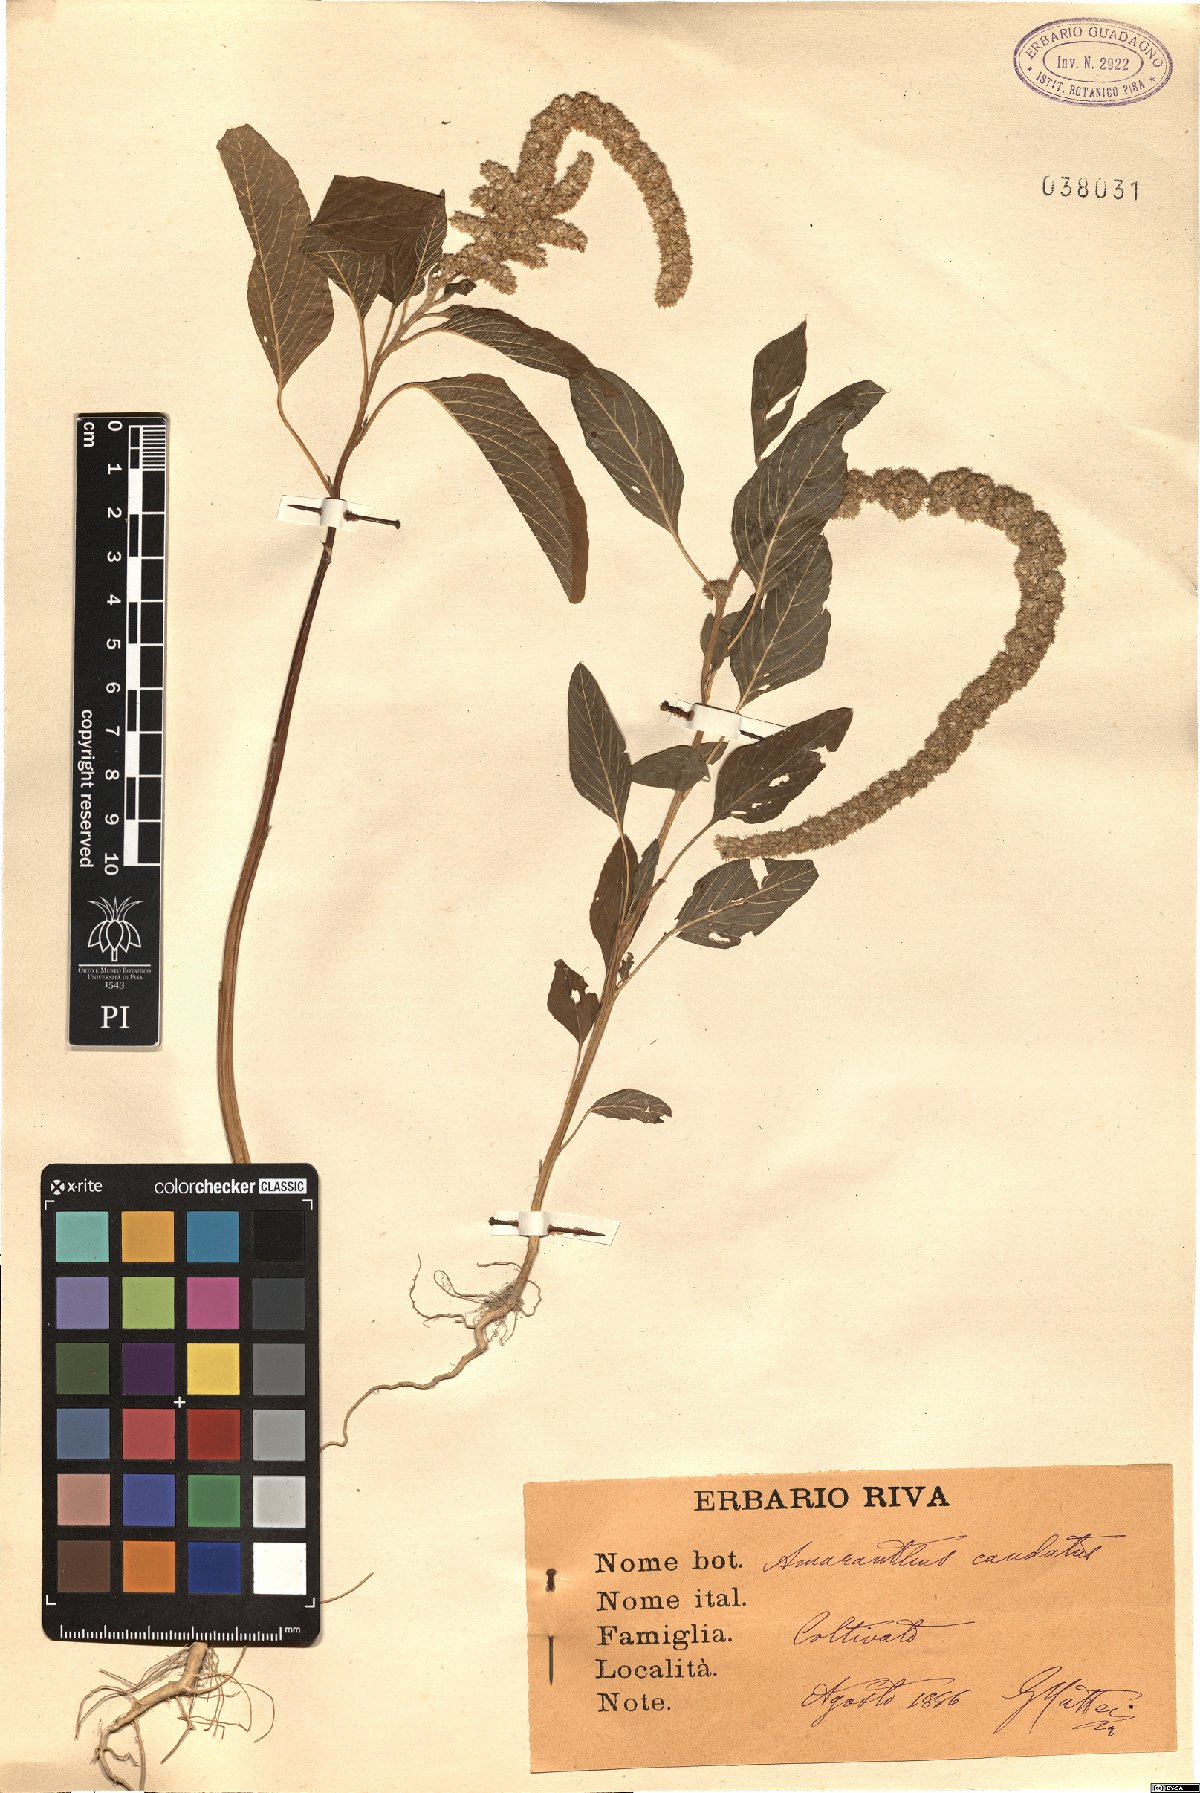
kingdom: Plantae
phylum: Tracheophyta
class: Magnoliopsida
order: Caryophyllales
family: Amaranthaceae
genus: Amaranthus
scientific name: Amaranthus caudatus
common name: Love-lies-bleeding
